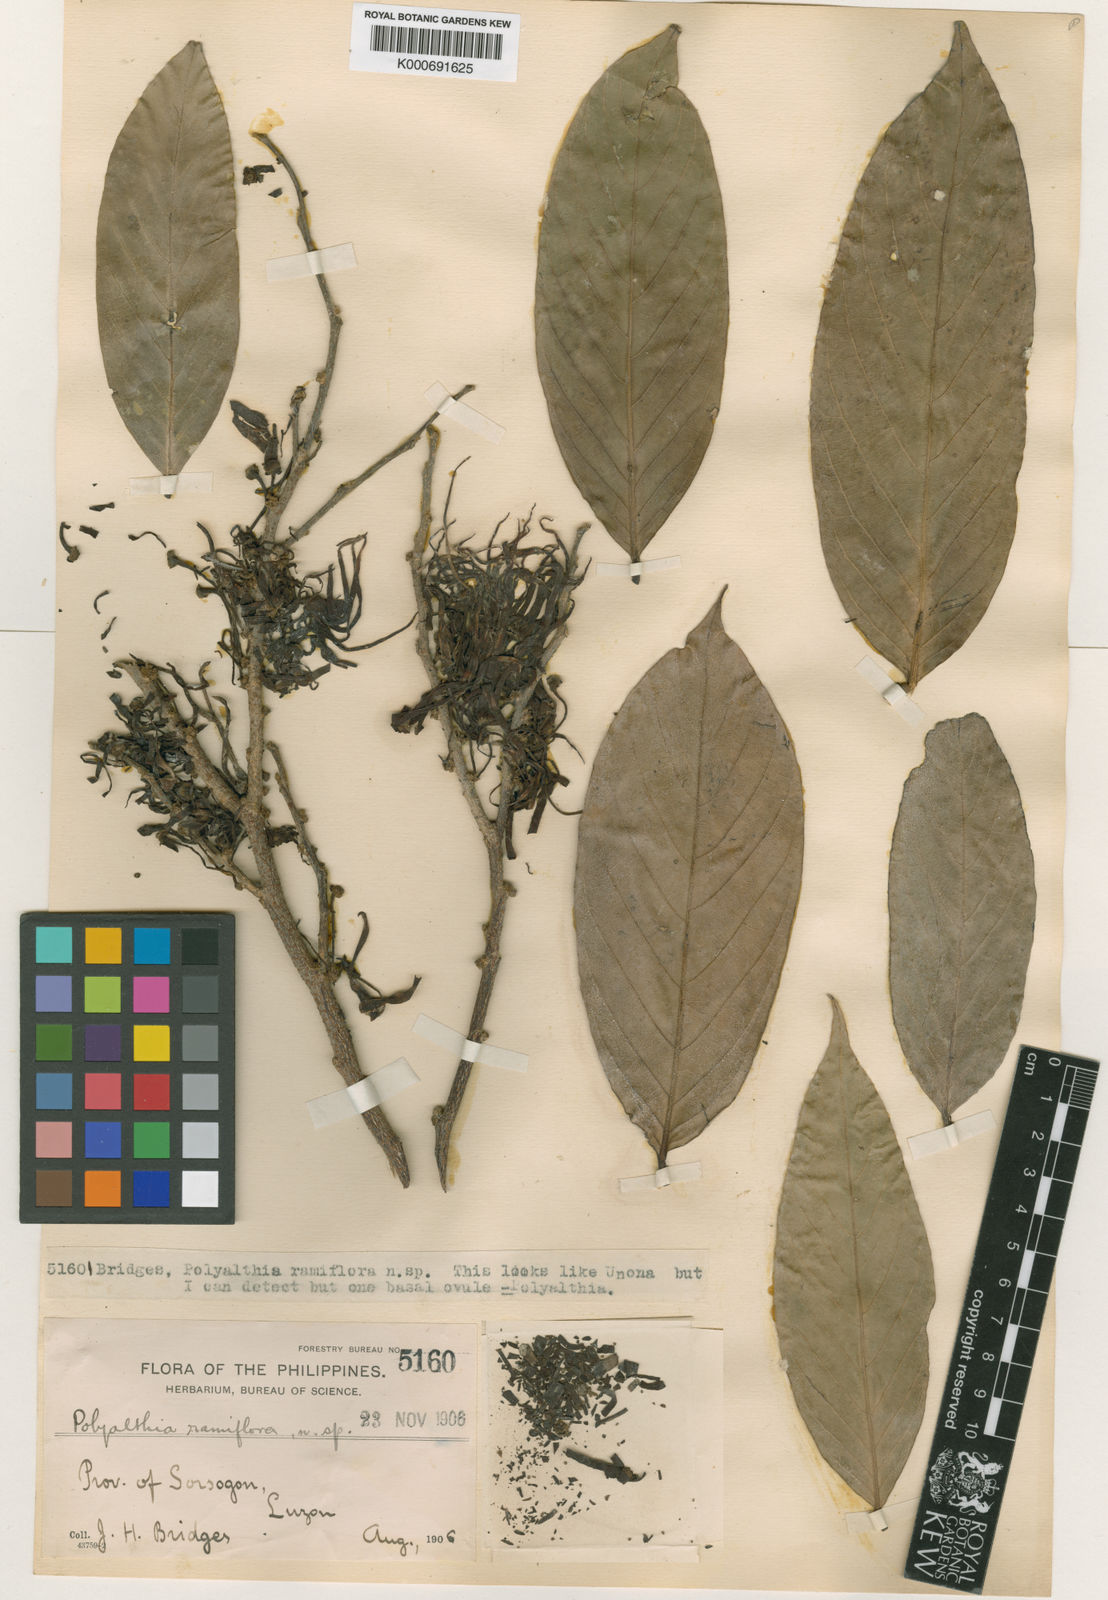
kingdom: Plantae
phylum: Tracheophyta
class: Magnoliopsida
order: Magnoliales
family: Annonaceae
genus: Polyalthia
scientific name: Polyalthia ramiflora
